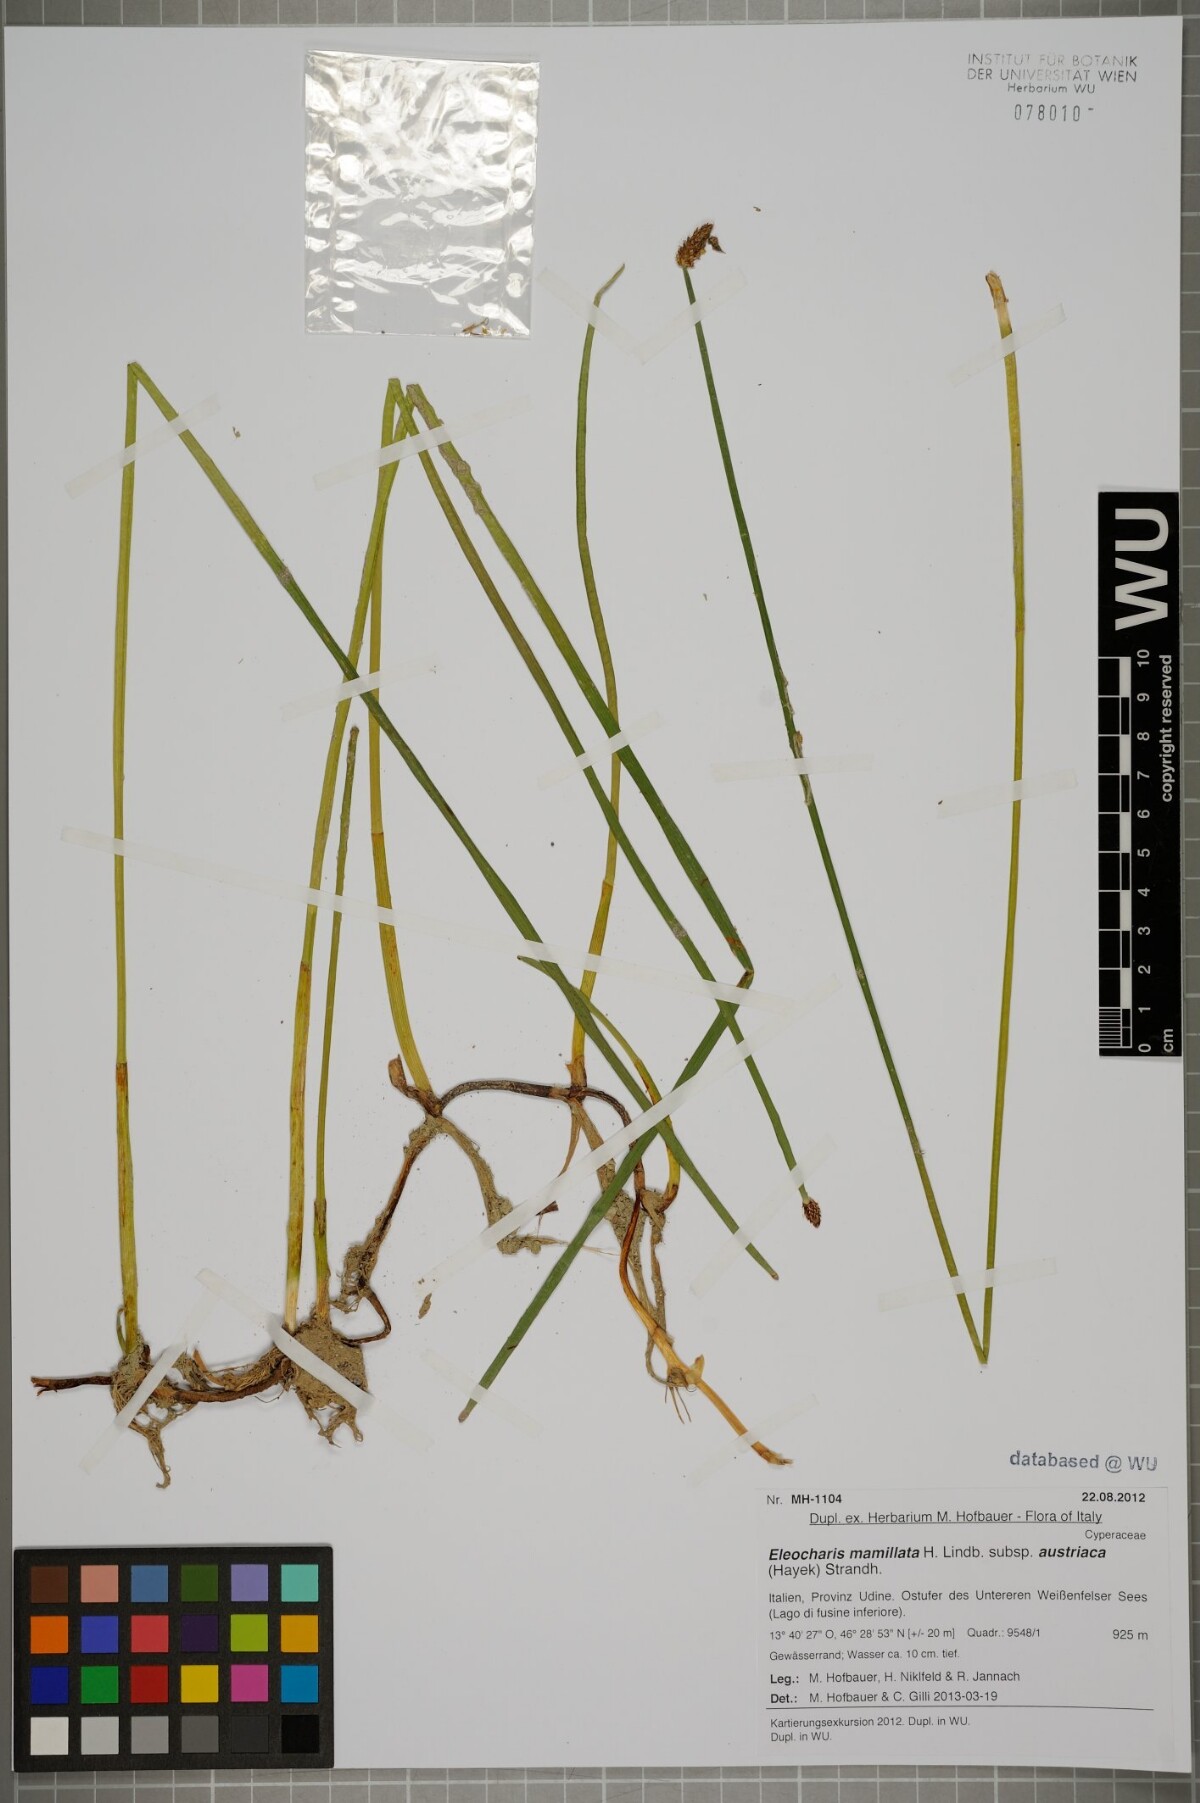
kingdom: Plantae
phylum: Tracheophyta
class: Liliopsida
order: Poales
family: Cyperaceae
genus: Eleocharis
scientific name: Eleocharis mamillata
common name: Northern spike-rush
